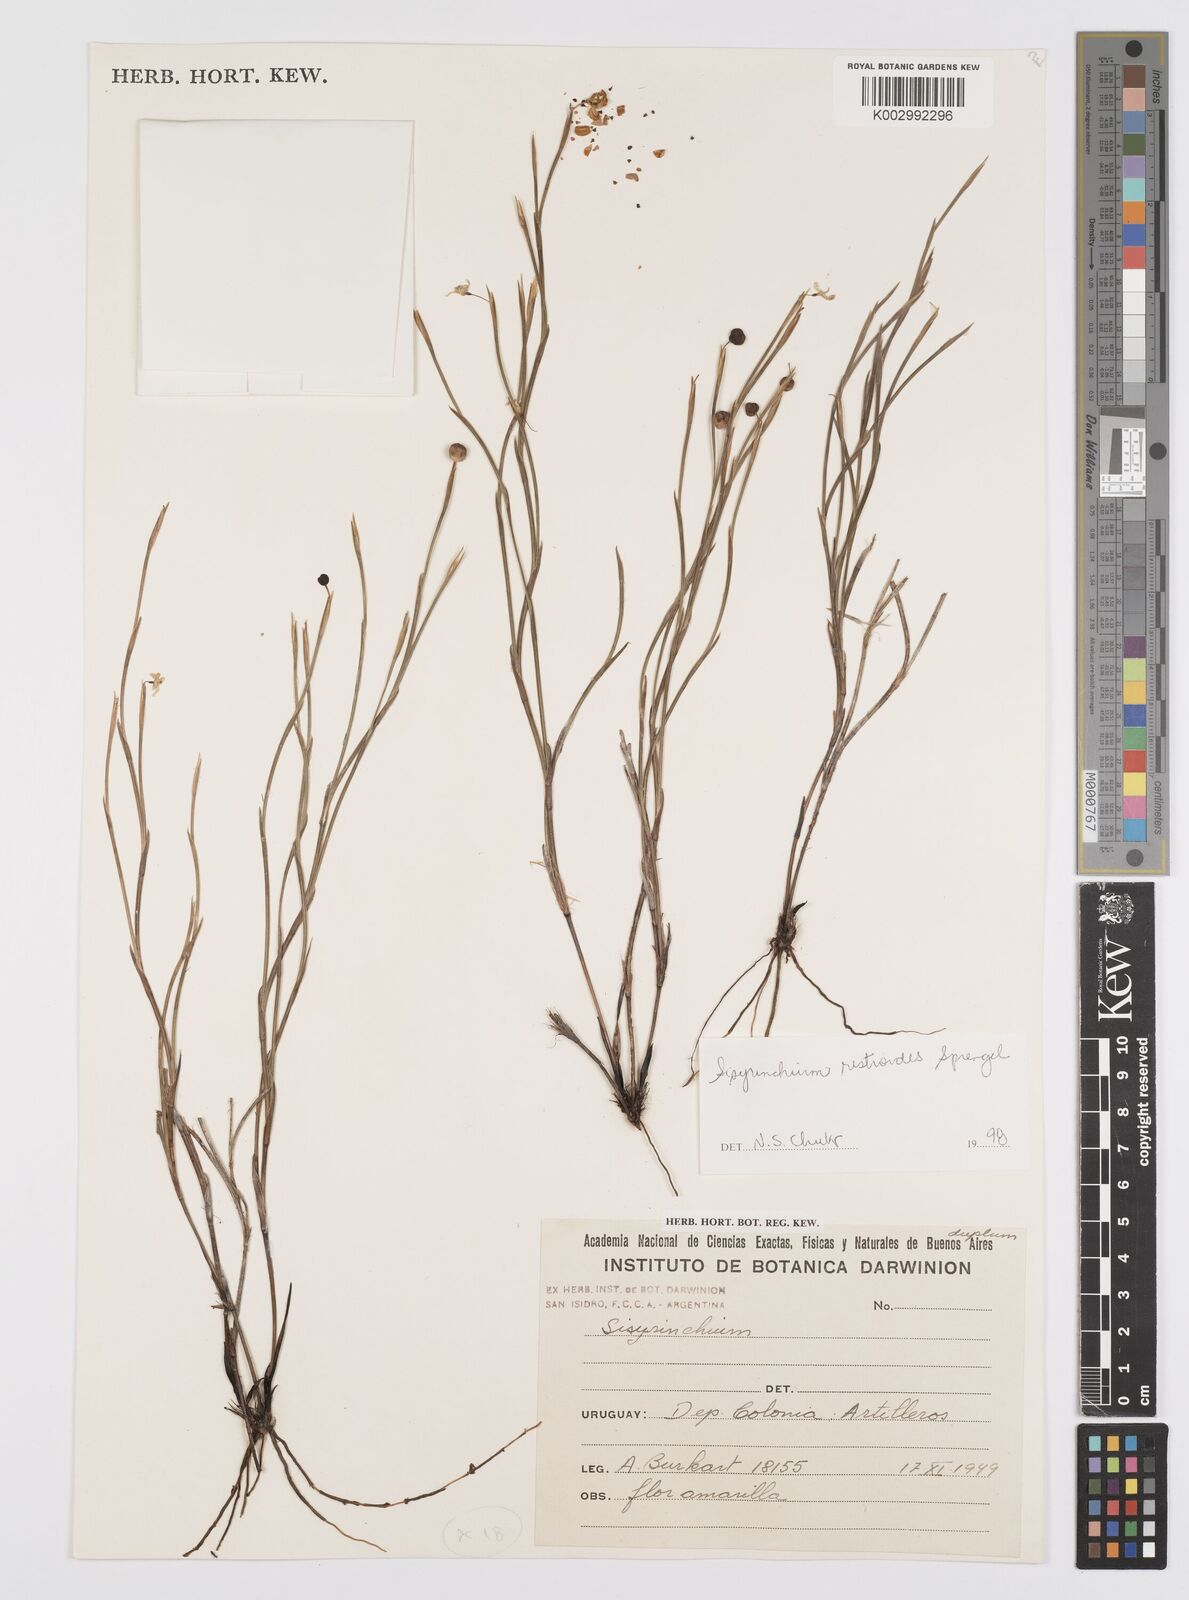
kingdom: Plantae
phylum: Tracheophyta
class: Liliopsida
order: Asparagales
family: Iridaceae
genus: Sisyrinchium
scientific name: Sisyrinchium restioides
